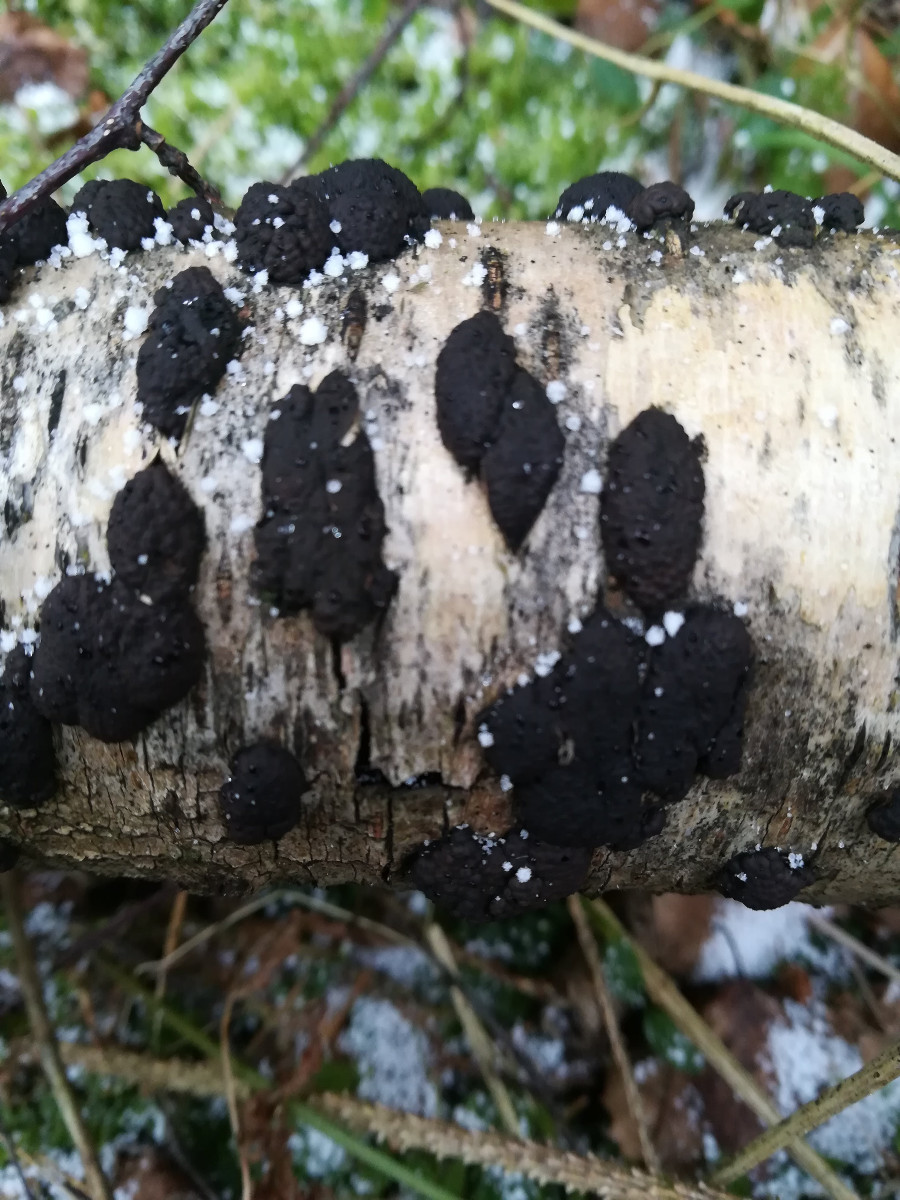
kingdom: Fungi
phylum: Ascomycota
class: Sordariomycetes
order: Xylariales
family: Hypoxylaceae
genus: Jackrogersella
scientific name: Jackrogersella multiformis
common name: foranderlig kulbær
